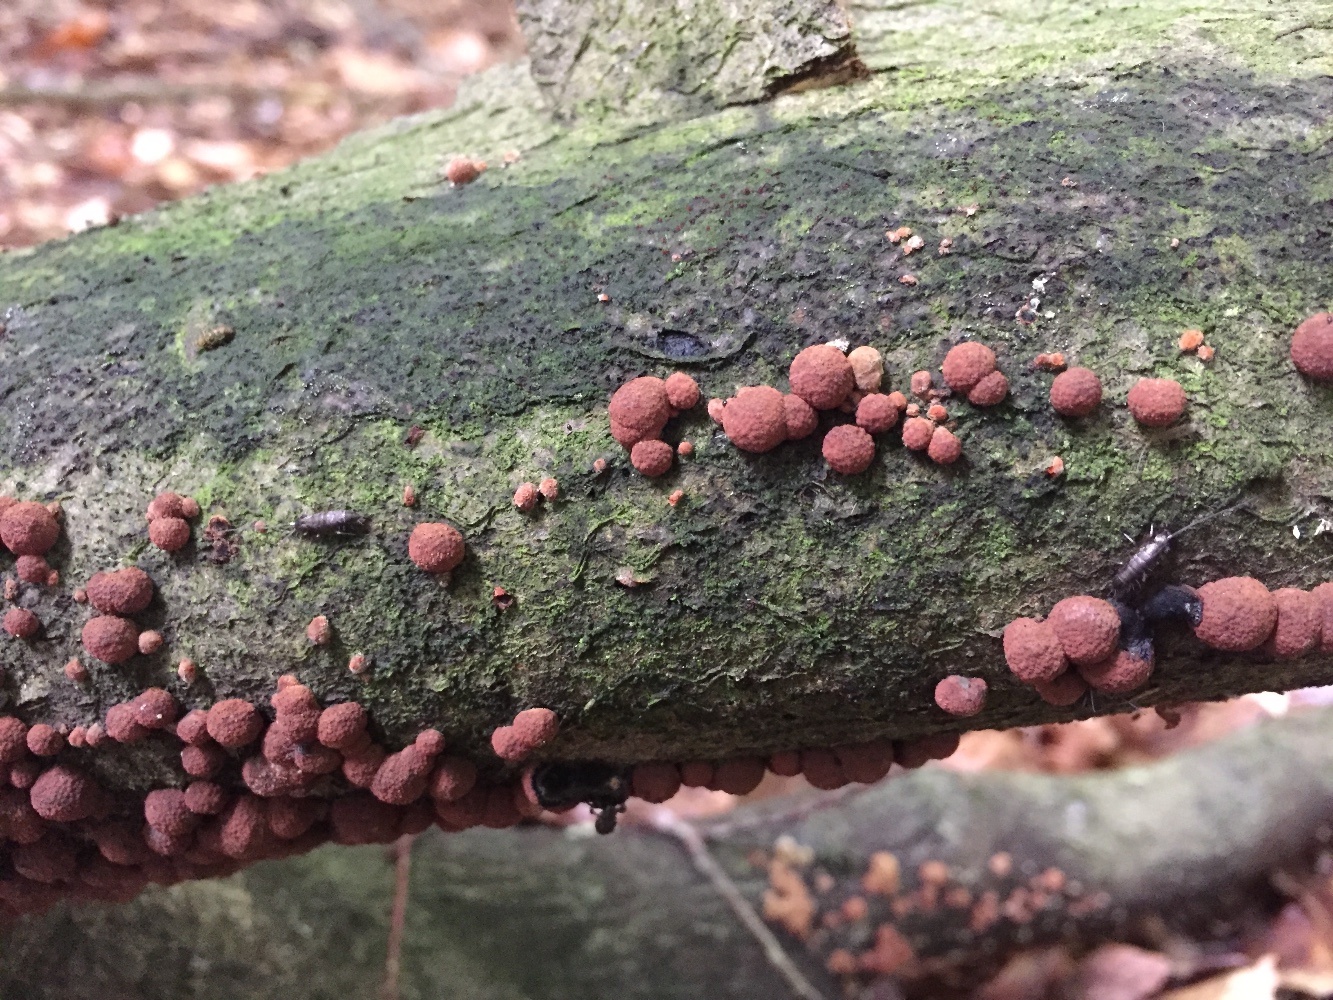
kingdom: Fungi
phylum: Ascomycota
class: Sordariomycetes
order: Xylariales
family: Hypoxylaceae
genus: Hypoxylon
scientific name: Hypoxylon fragiforme
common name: kuljordbær
